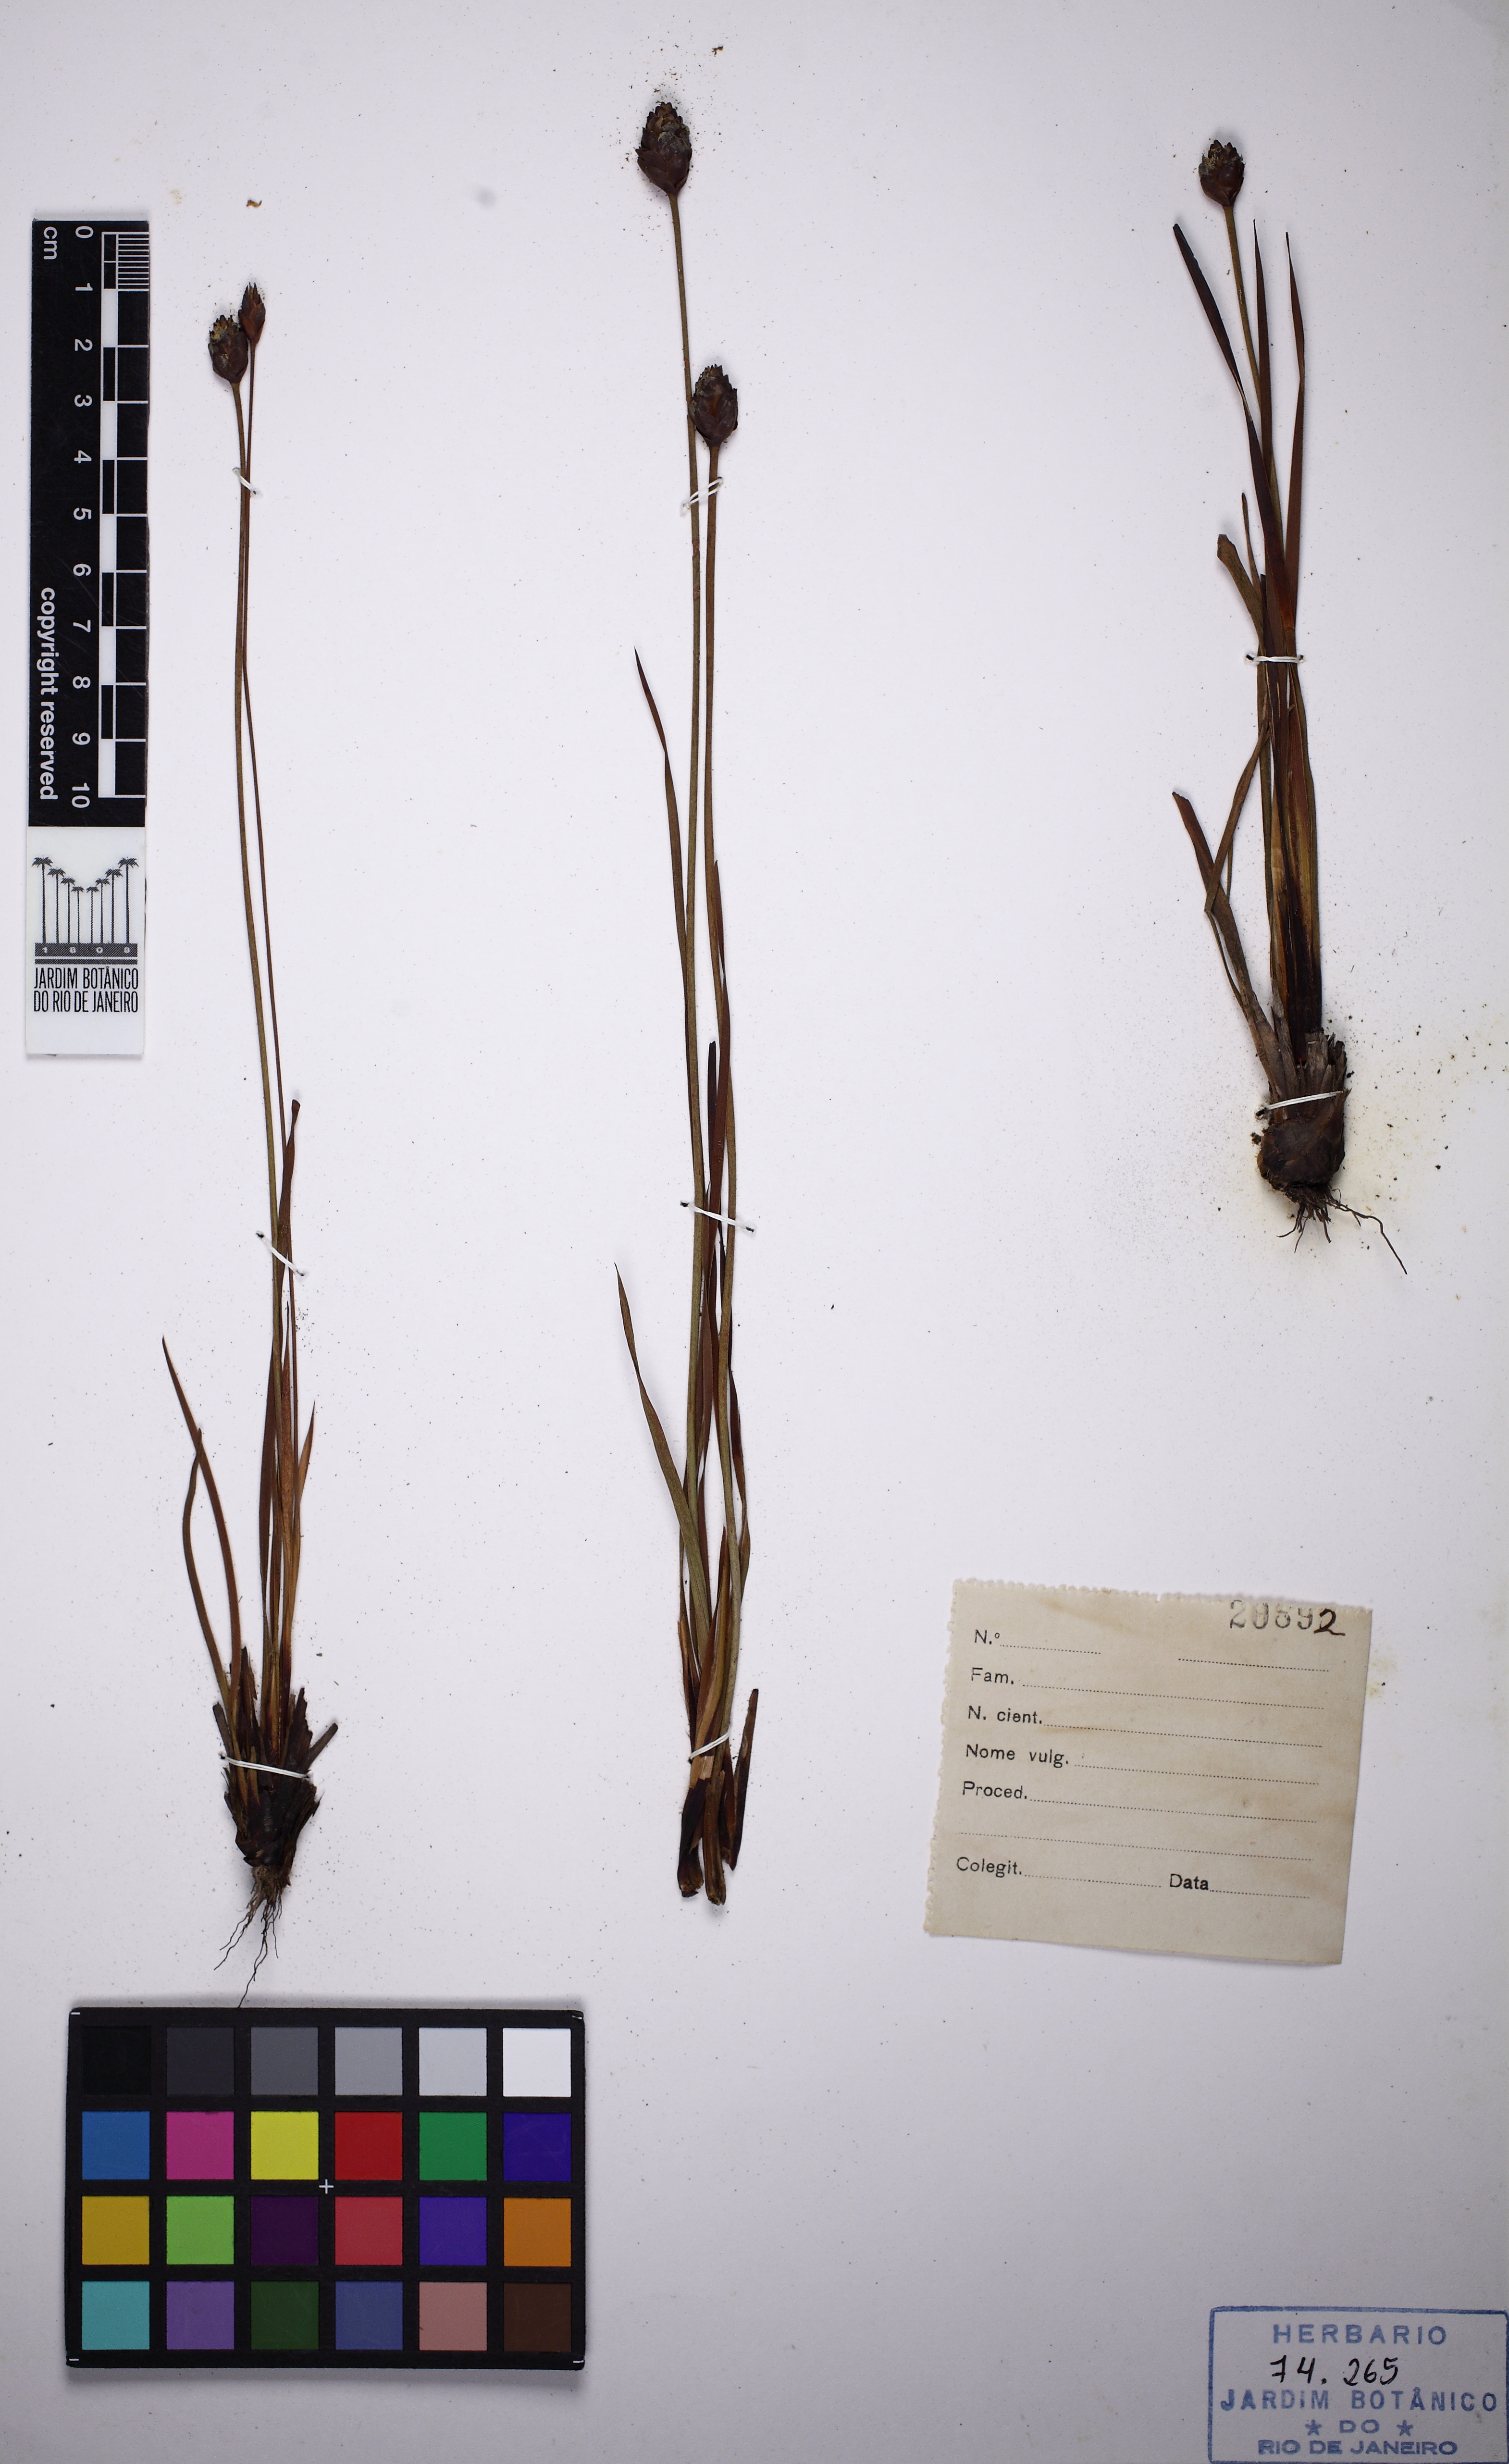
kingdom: Plantae
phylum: Tracheophyta
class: Liliopsida
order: Poales
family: Xyridaceae
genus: Xyris
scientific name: Xyris trachyphylla
